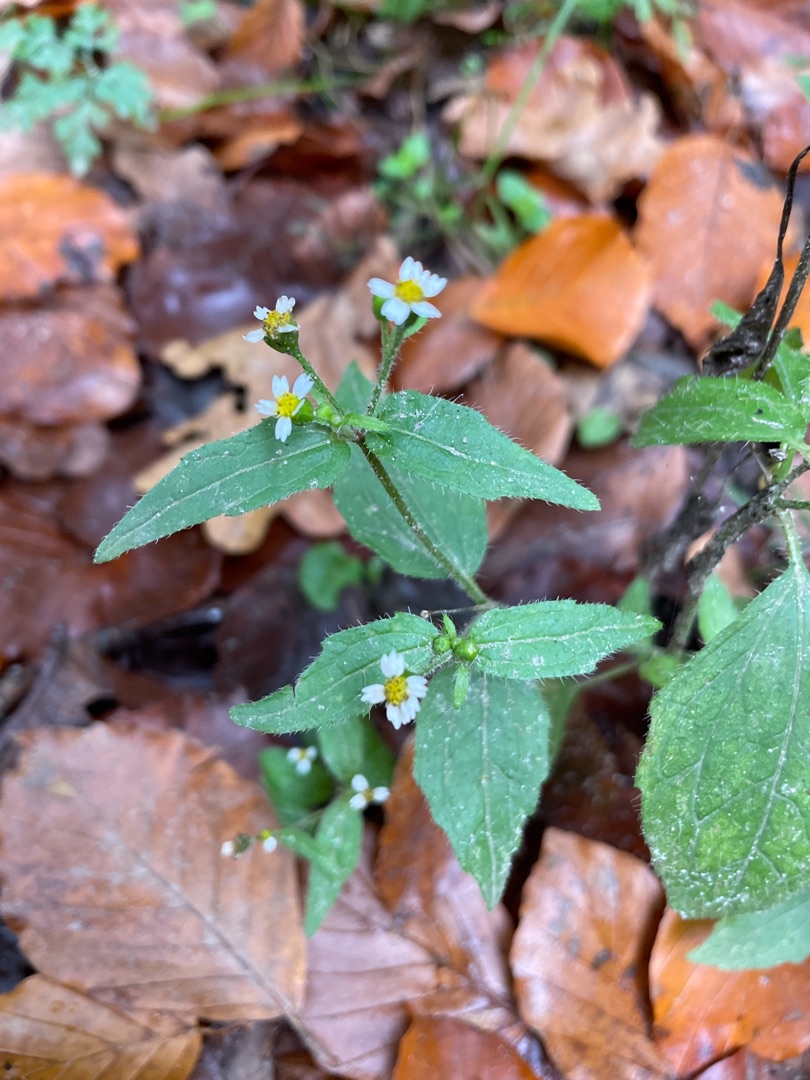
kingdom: Plantae
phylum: Tracheophyta
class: Magnoliopsida
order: Asterales
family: Asteraceae
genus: Galinsoga
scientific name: Galinsoga quadriradiata
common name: Kirtel-kortstråle
